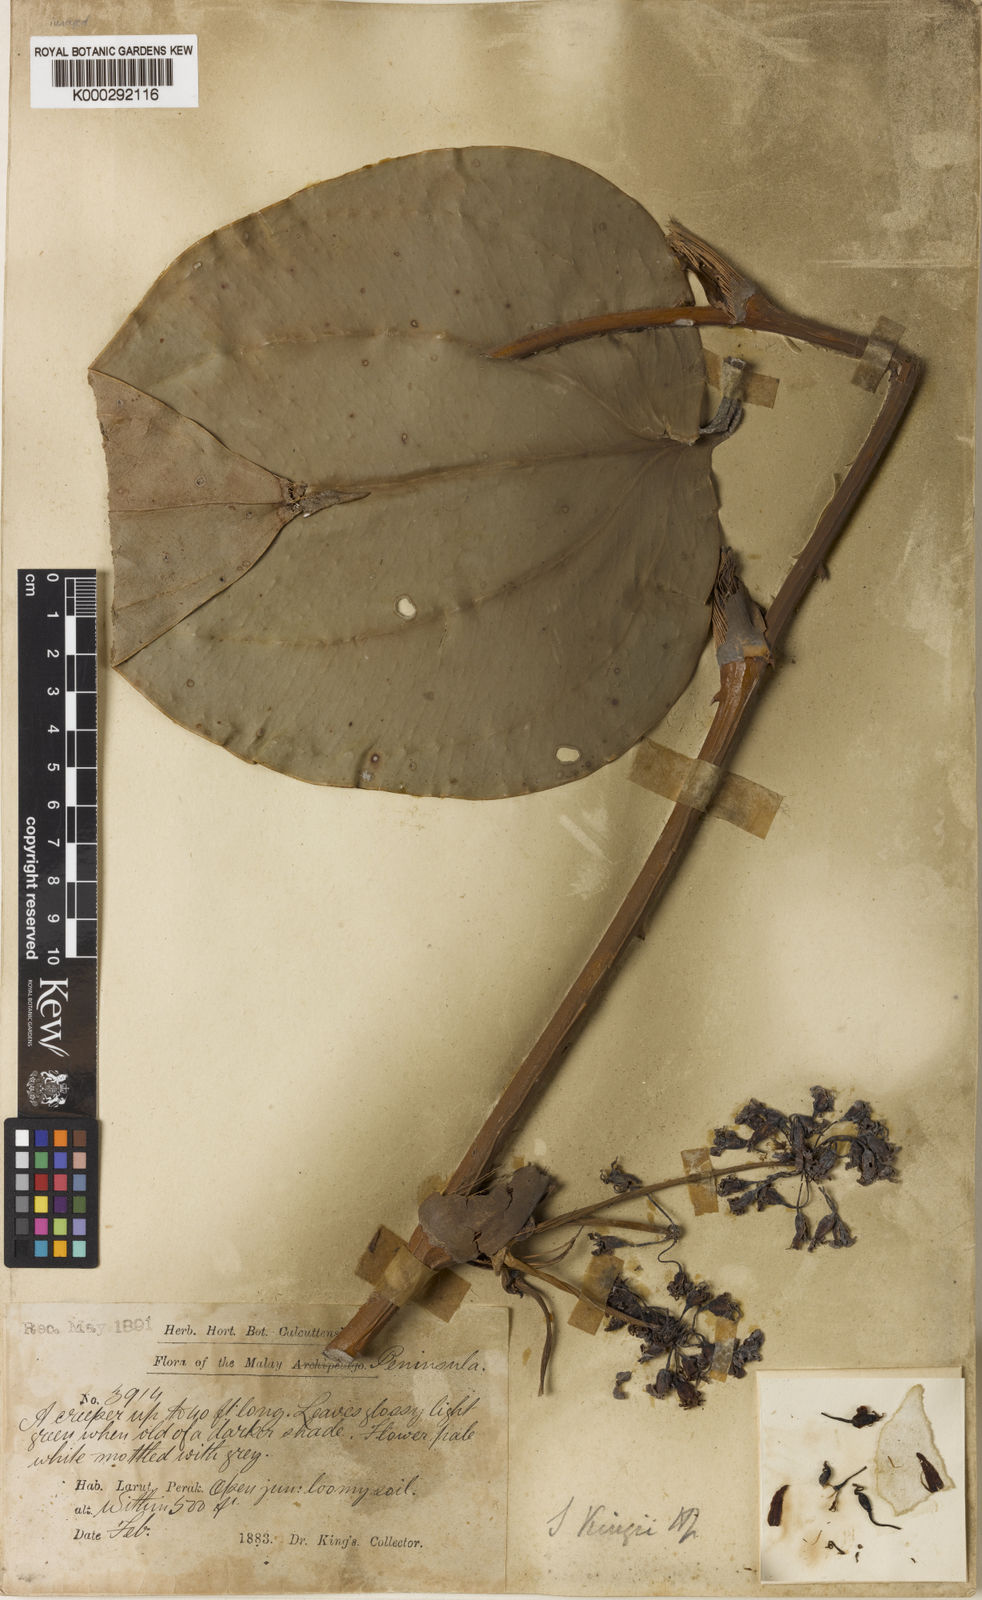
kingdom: Plantae
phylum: Tracheophyta
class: Liliopsida
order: Liliales
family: Smilacaceae
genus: Smilax
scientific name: Smilax kingii
